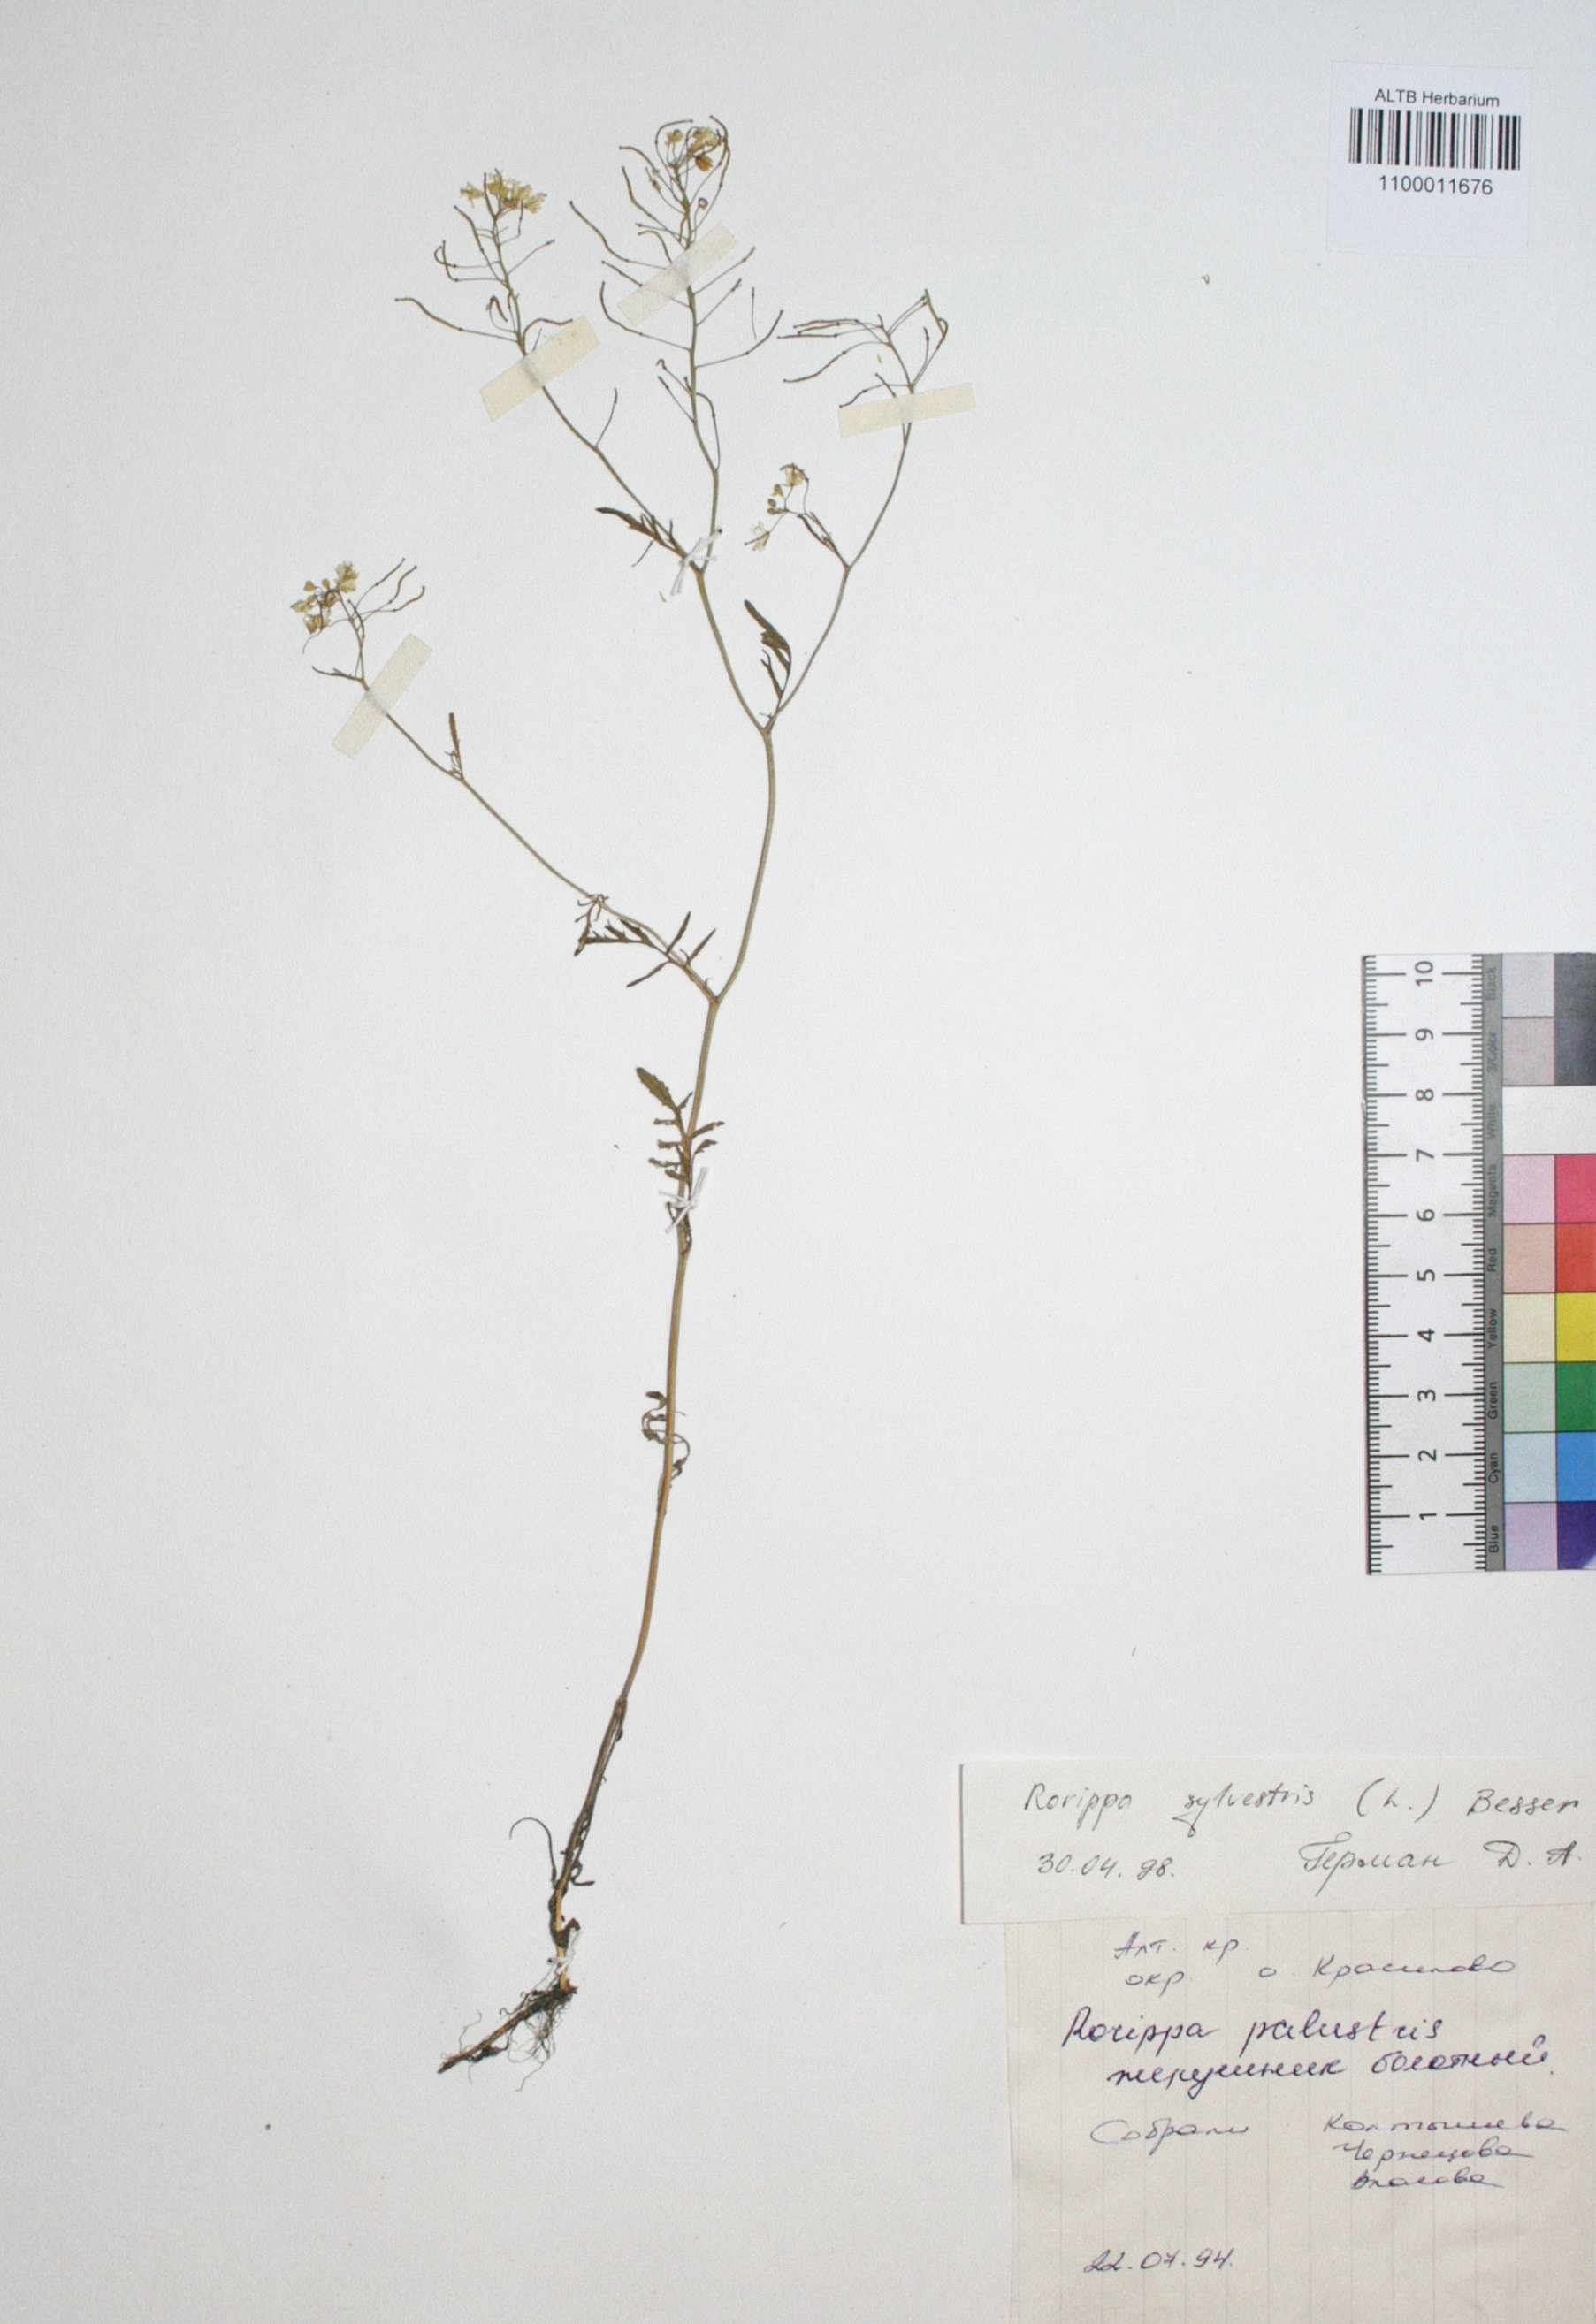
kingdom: Plantae
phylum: Tracheophyta
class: Magnoliopsida
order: Brassicales
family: Brassicaceae
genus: Rorippa
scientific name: Rorippa sylvestris
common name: Creeping yellowcress
